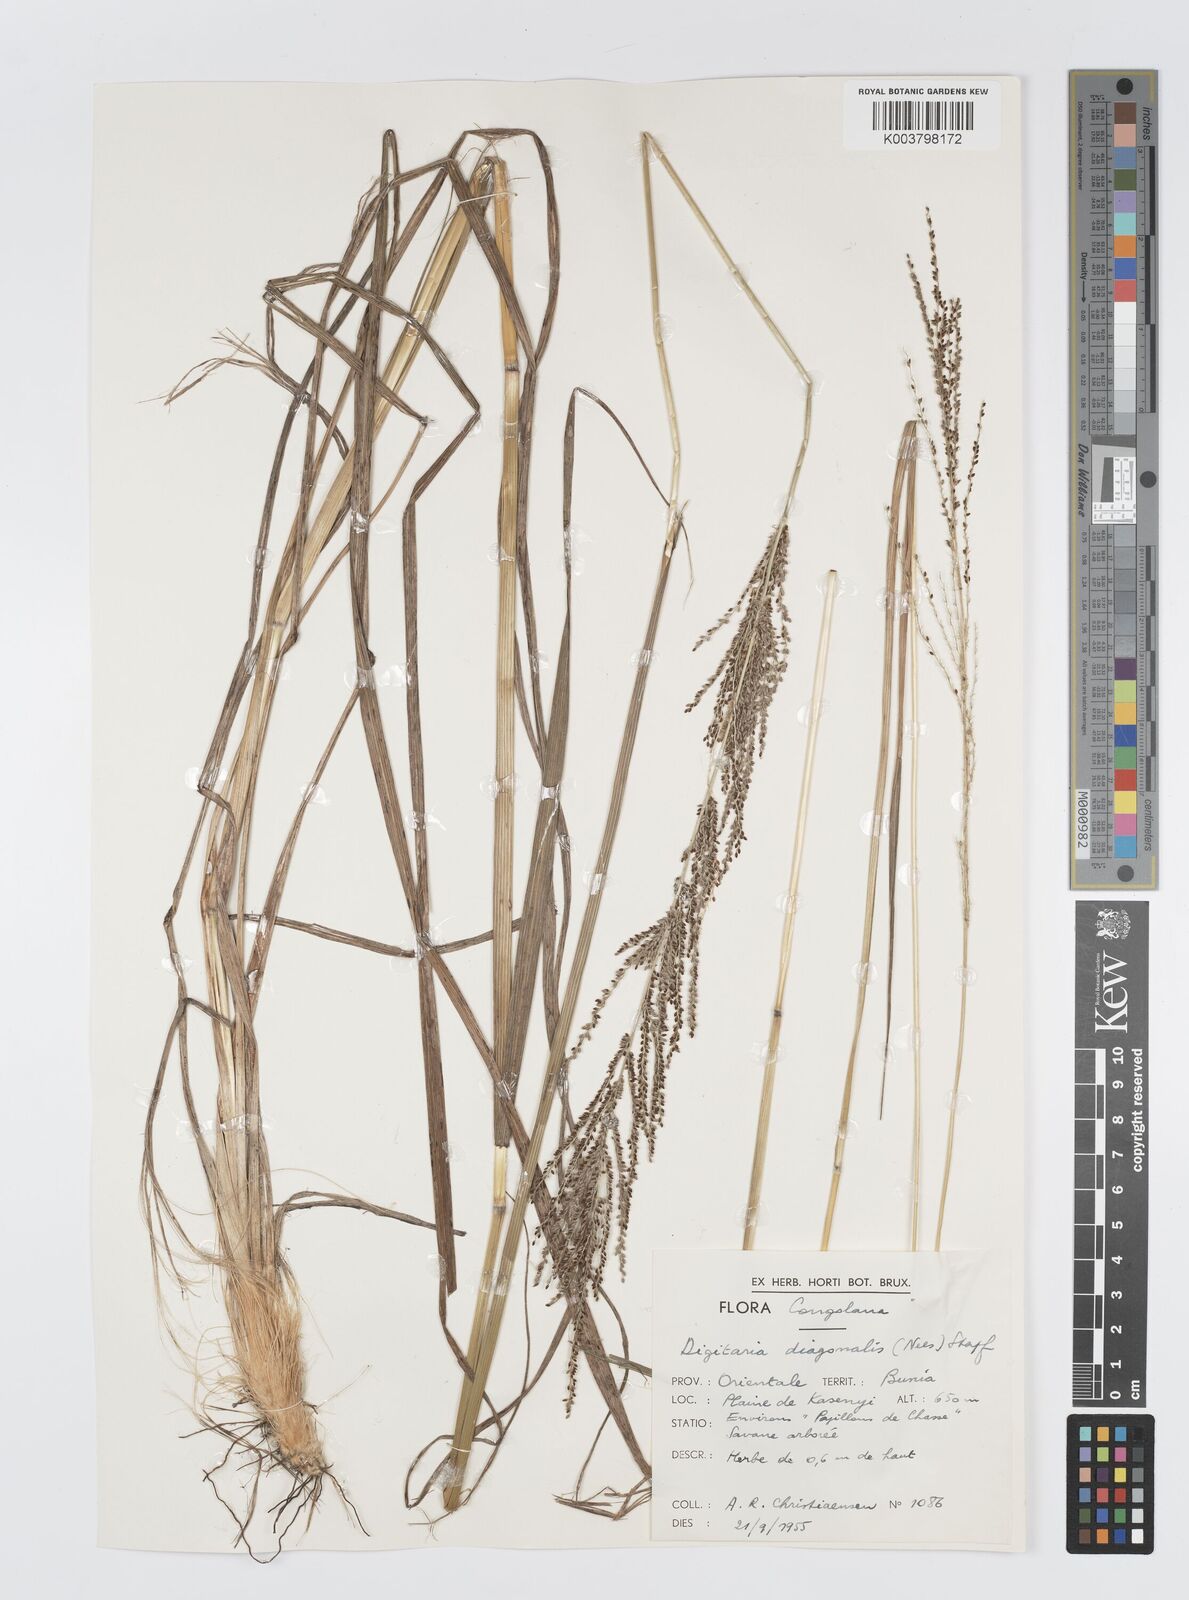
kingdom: Plantae
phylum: Tracheophyta
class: Liliopsida
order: Poales
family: Poaceae
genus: Digitaria
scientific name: Digitaria diagonalis
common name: Brown-seed finger grass
